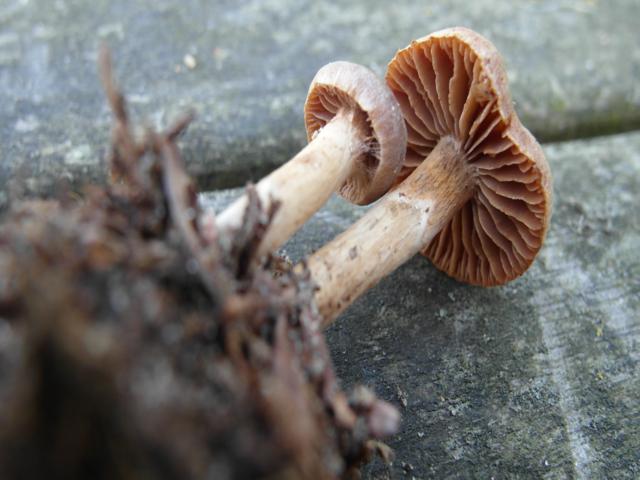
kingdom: Fungi
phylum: Basidiomycota
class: Agaricomycetes
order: Agaricales
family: Cortinariaceae
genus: Cortinarius
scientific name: Cortinarius denigratoides
